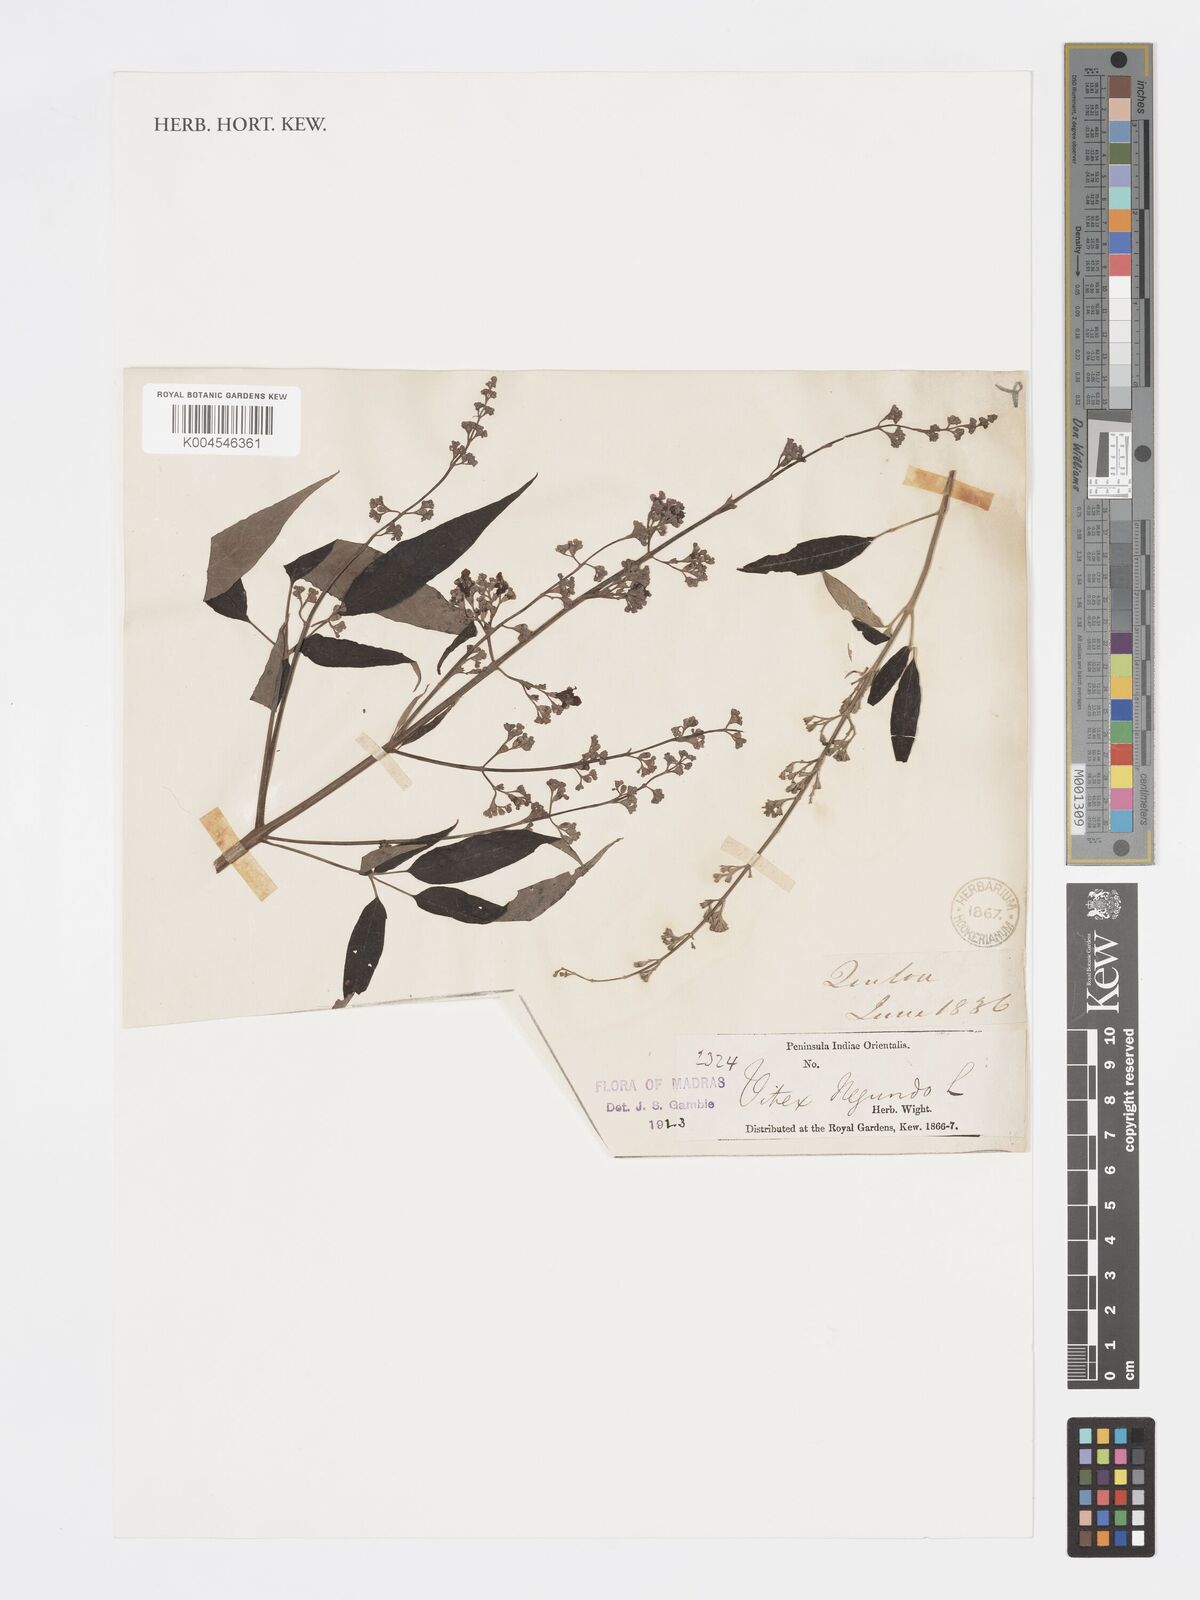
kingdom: Plantae
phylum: Tracheophyta
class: Magnoliopsida
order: Lamiales
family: Lamiaceae
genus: Vitex
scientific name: Vitex negundo
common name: Chinese chastetree
